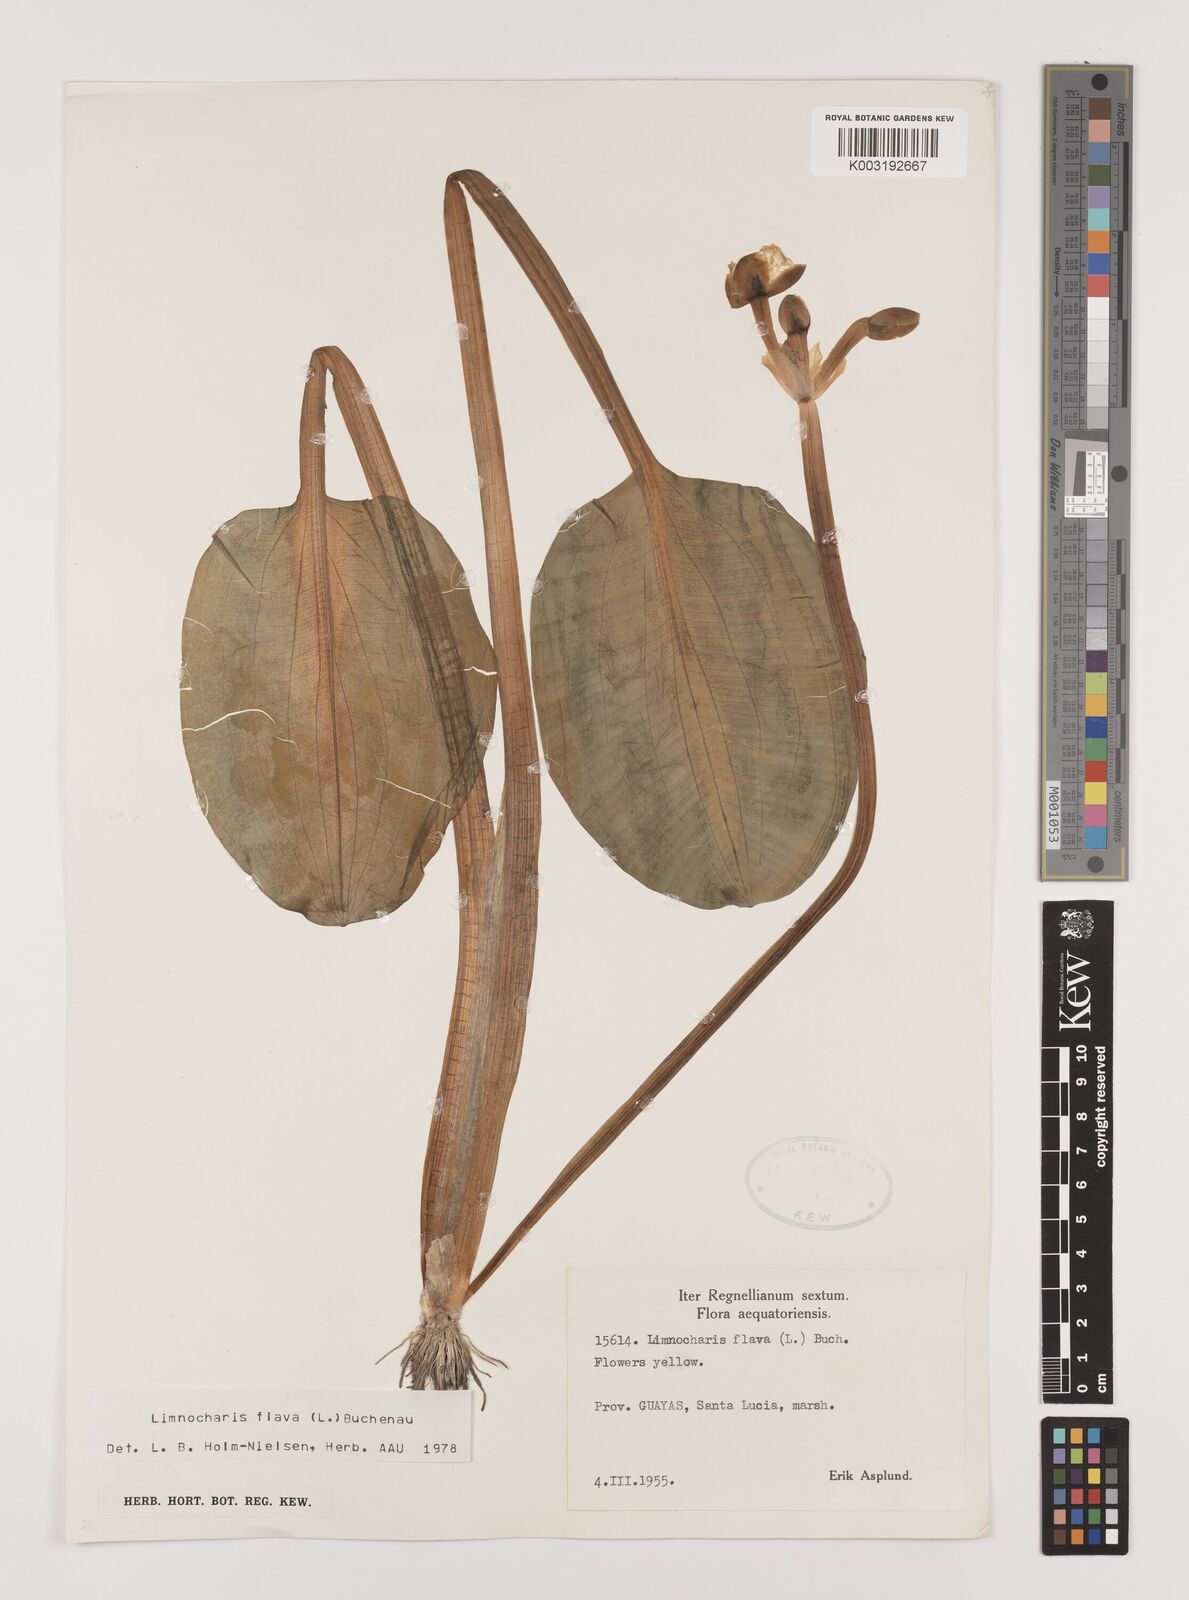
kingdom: Plantae
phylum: Tracheophyta
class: Liliopsida
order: Alismatales
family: Alismataceae
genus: Limnocharis
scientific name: Limnocharis flava
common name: Sawah-flower-rush
